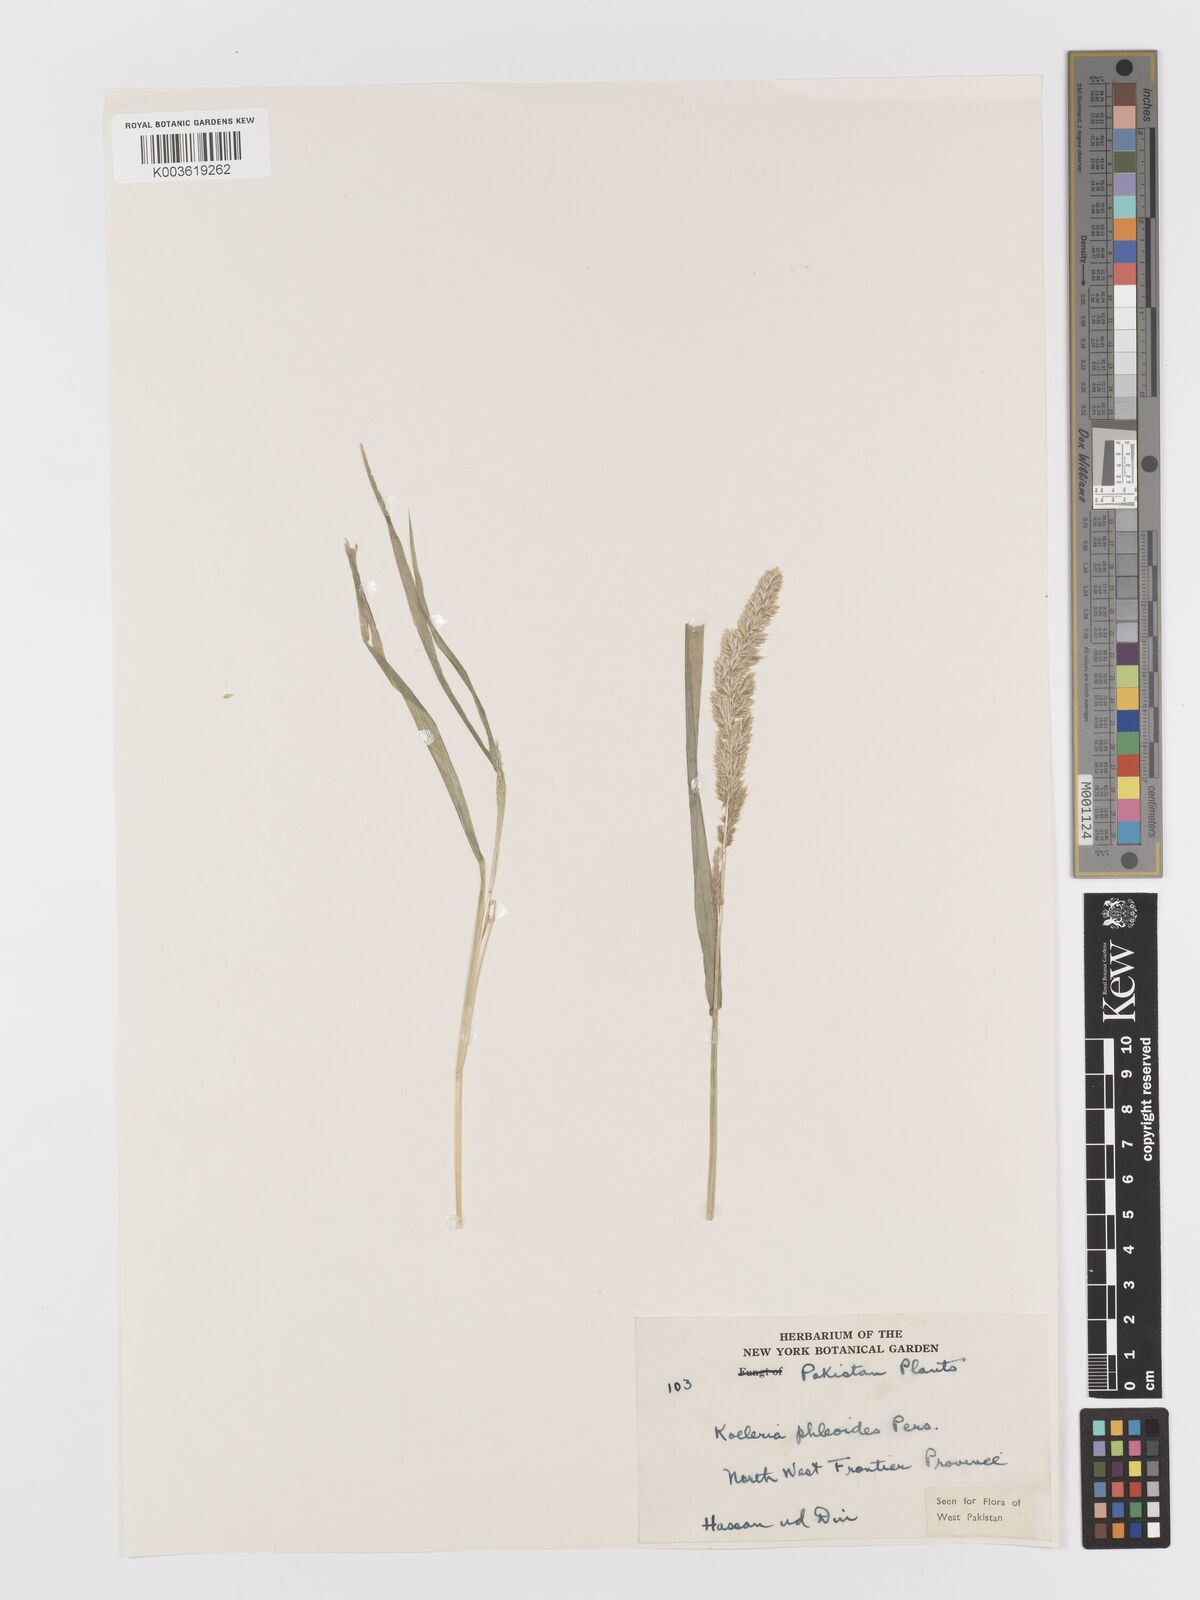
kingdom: Plantae
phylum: Tracheophyta
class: Liliopsida
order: Poales
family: Poaceae
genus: Rostraria
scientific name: Rostraria cristata
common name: Mediterranean hair-grass
